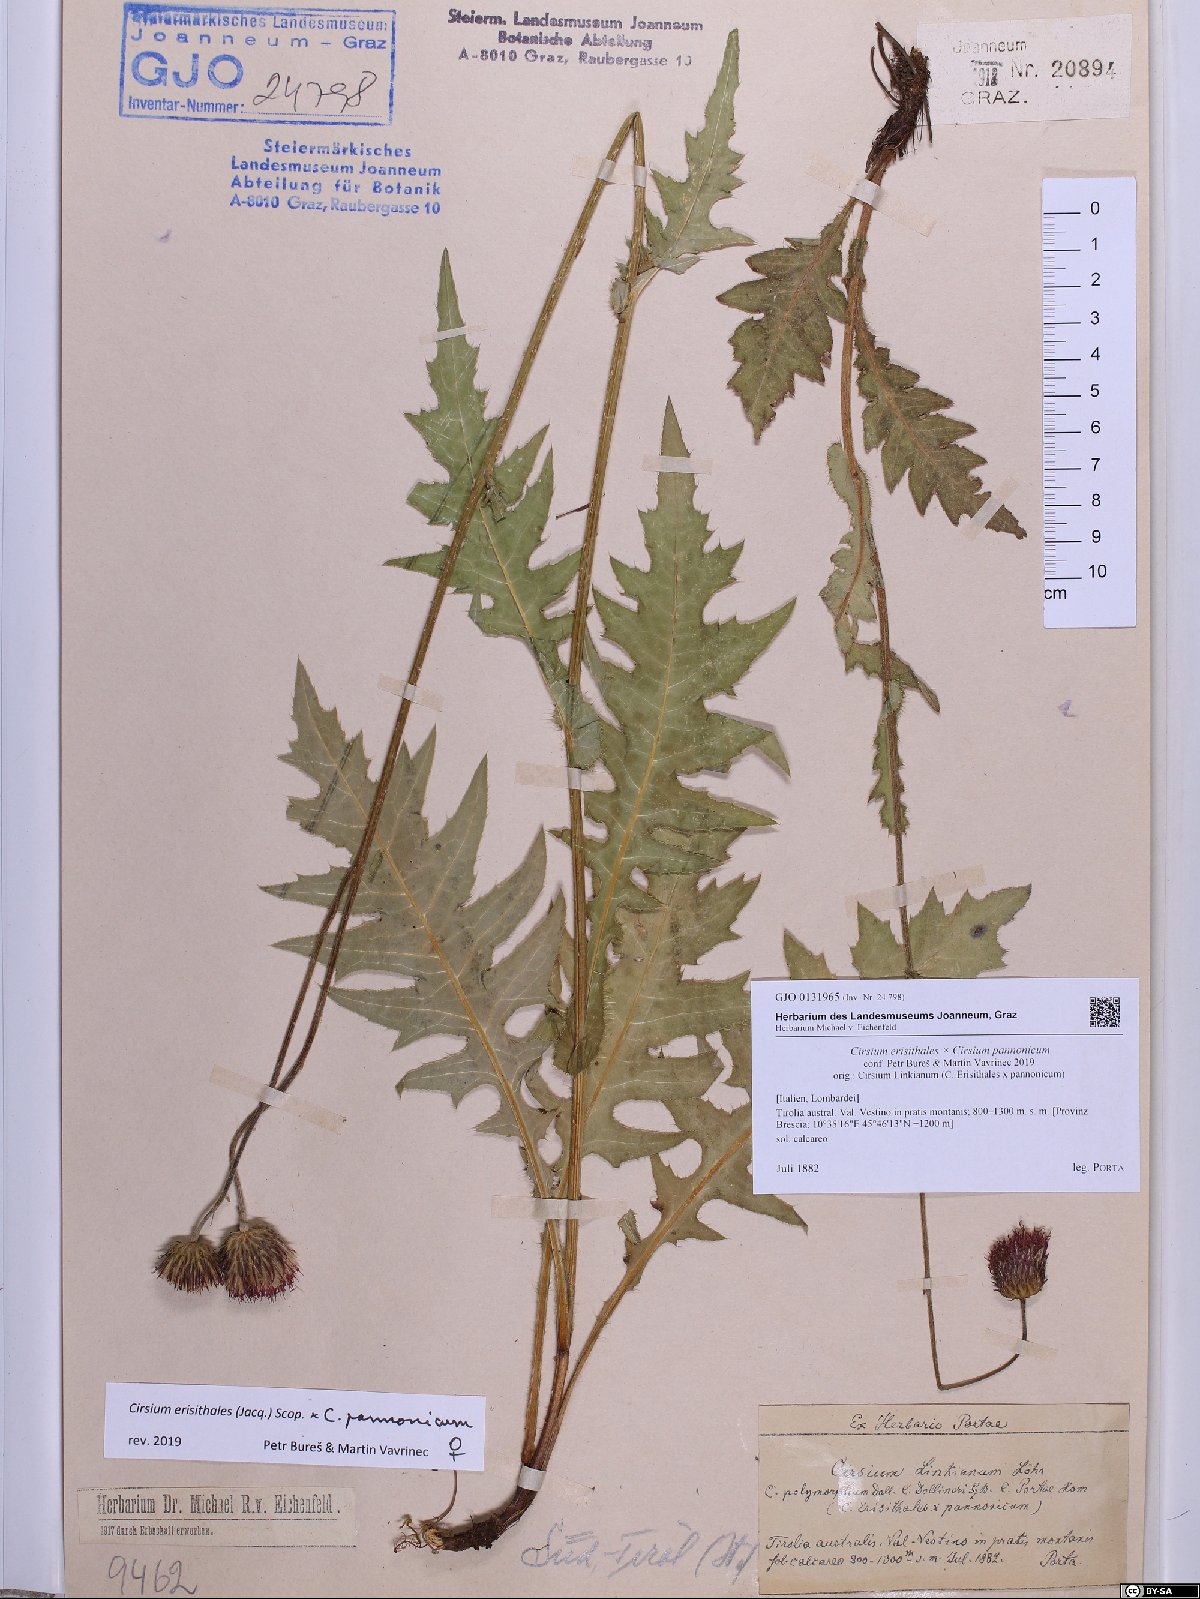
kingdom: Plantae
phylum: Tracheophyta
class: Magnoliopsida
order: Asterales
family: Asteraceae
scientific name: Asteraceae
